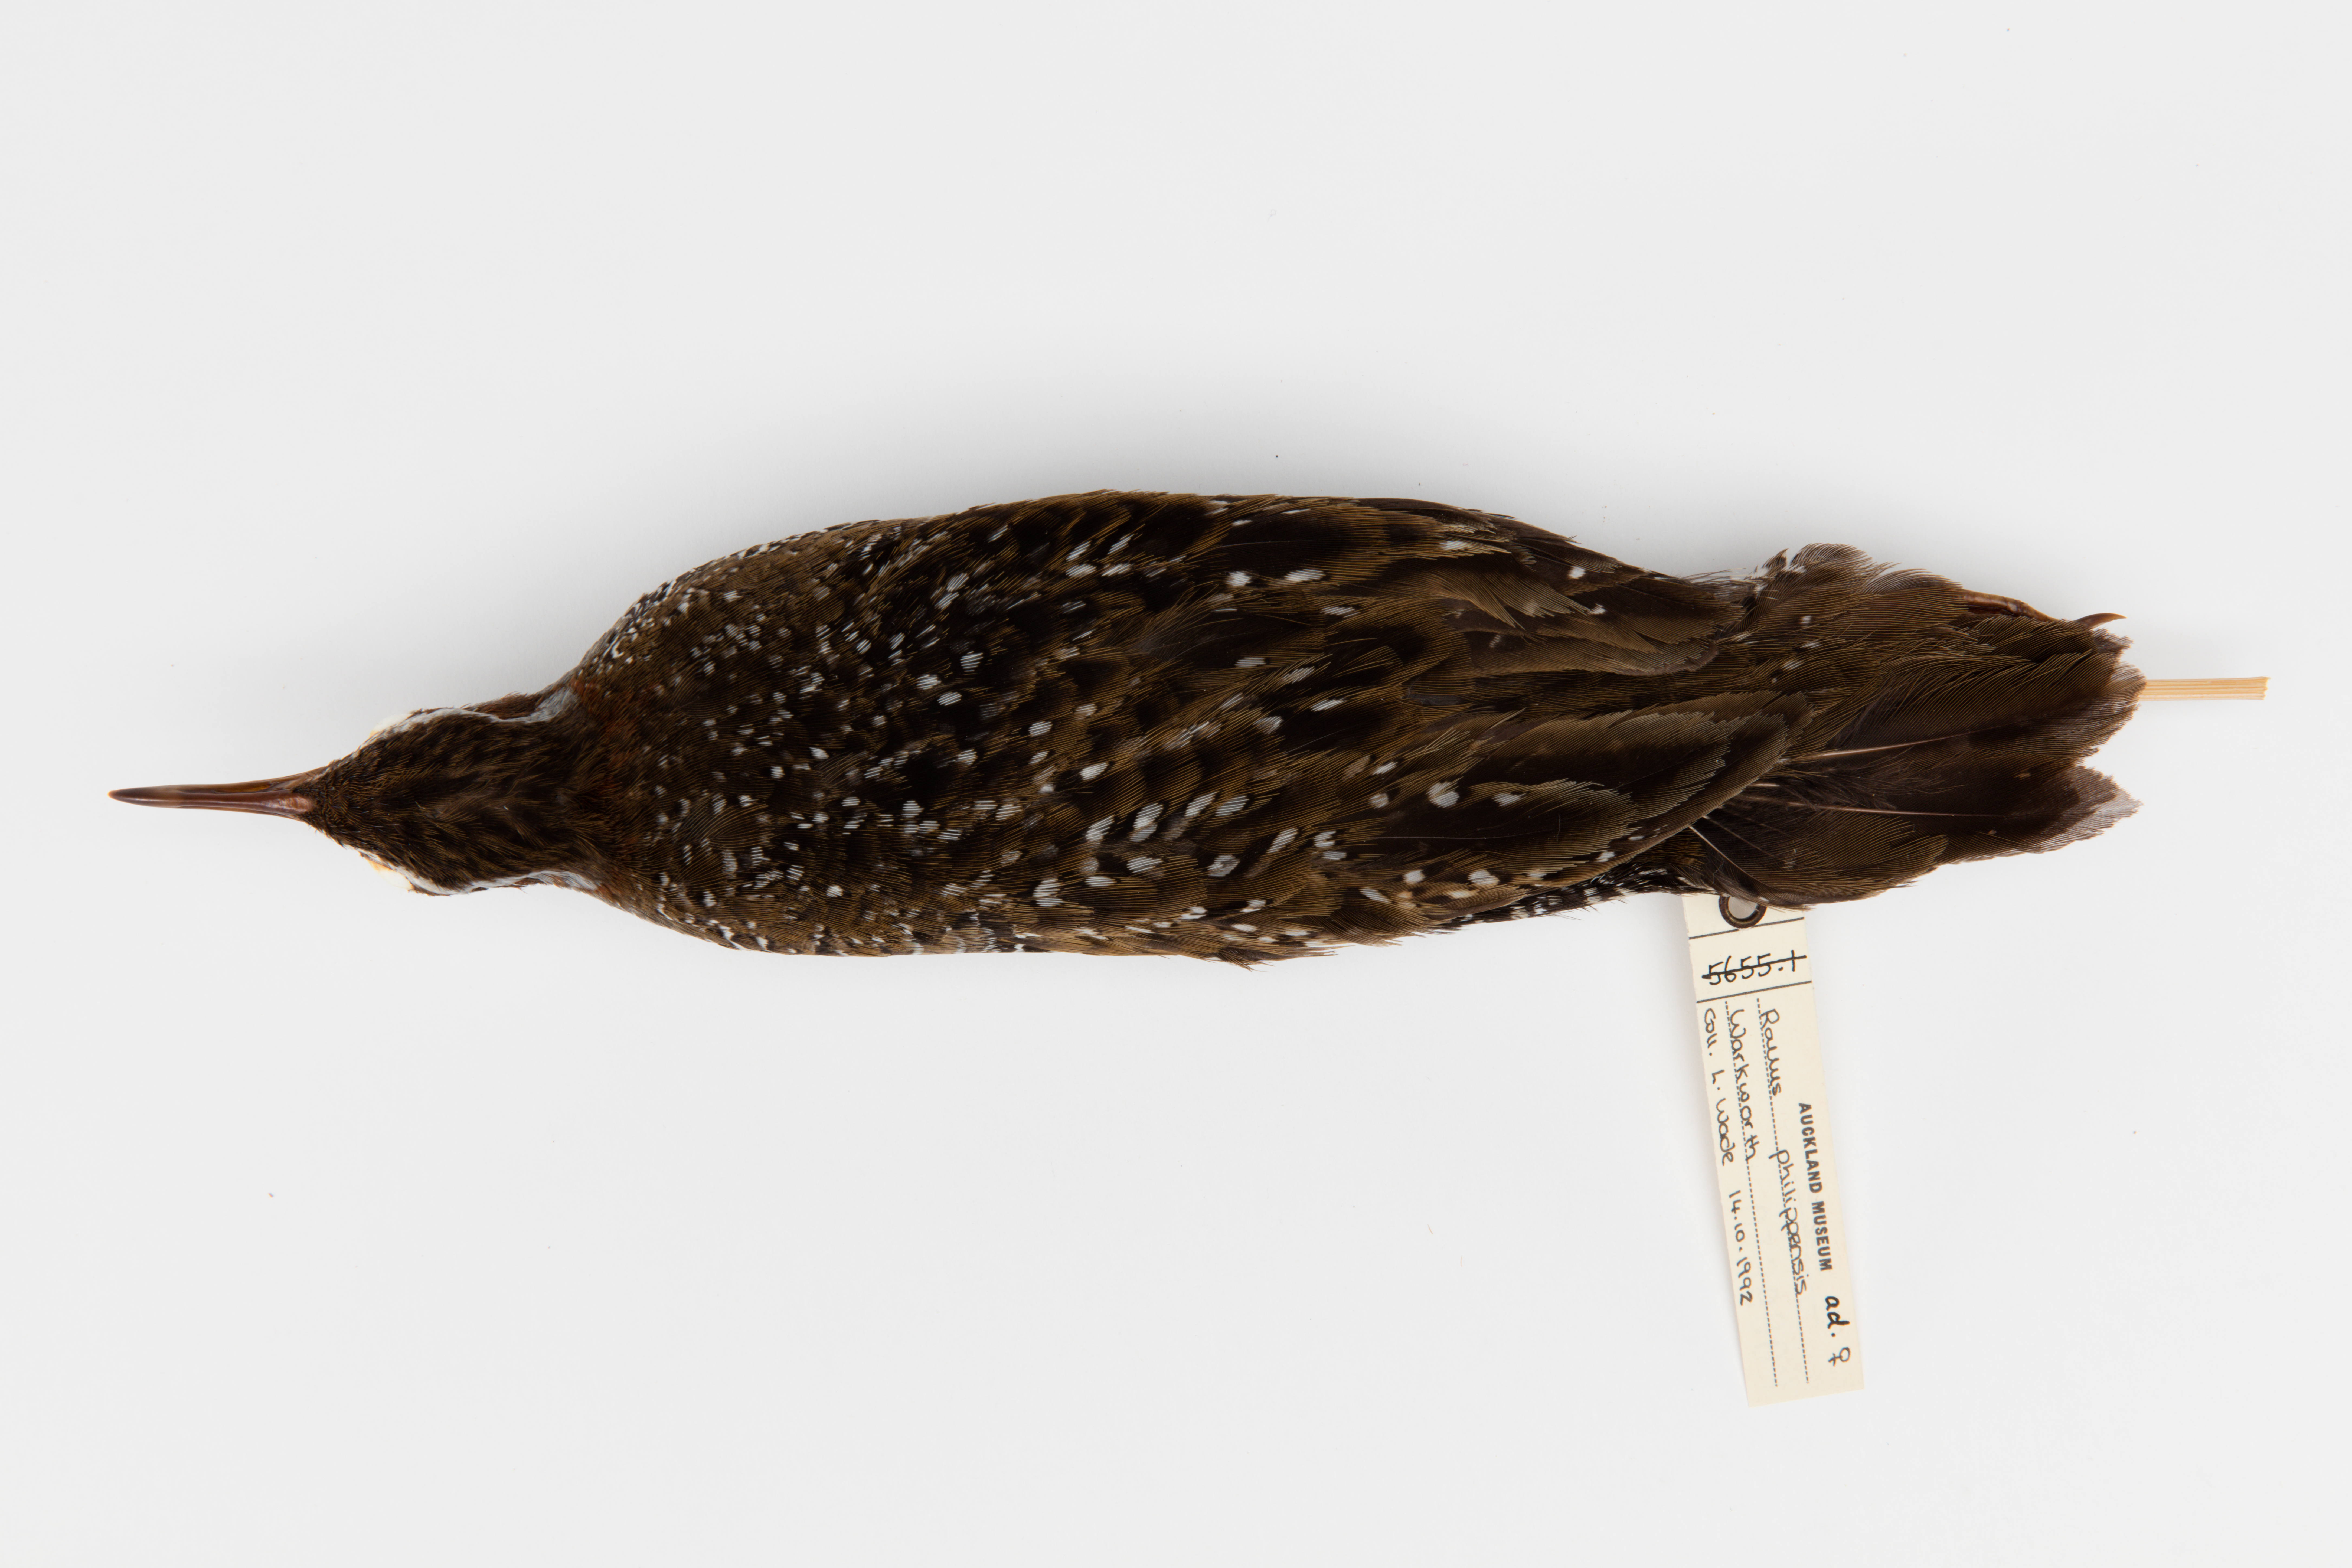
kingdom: Animalia
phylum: Chordata
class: Aves
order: Gruiformes
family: Rallidae
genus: Gallirallus
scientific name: Gallirallus philippensis
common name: Buff-banded rail
